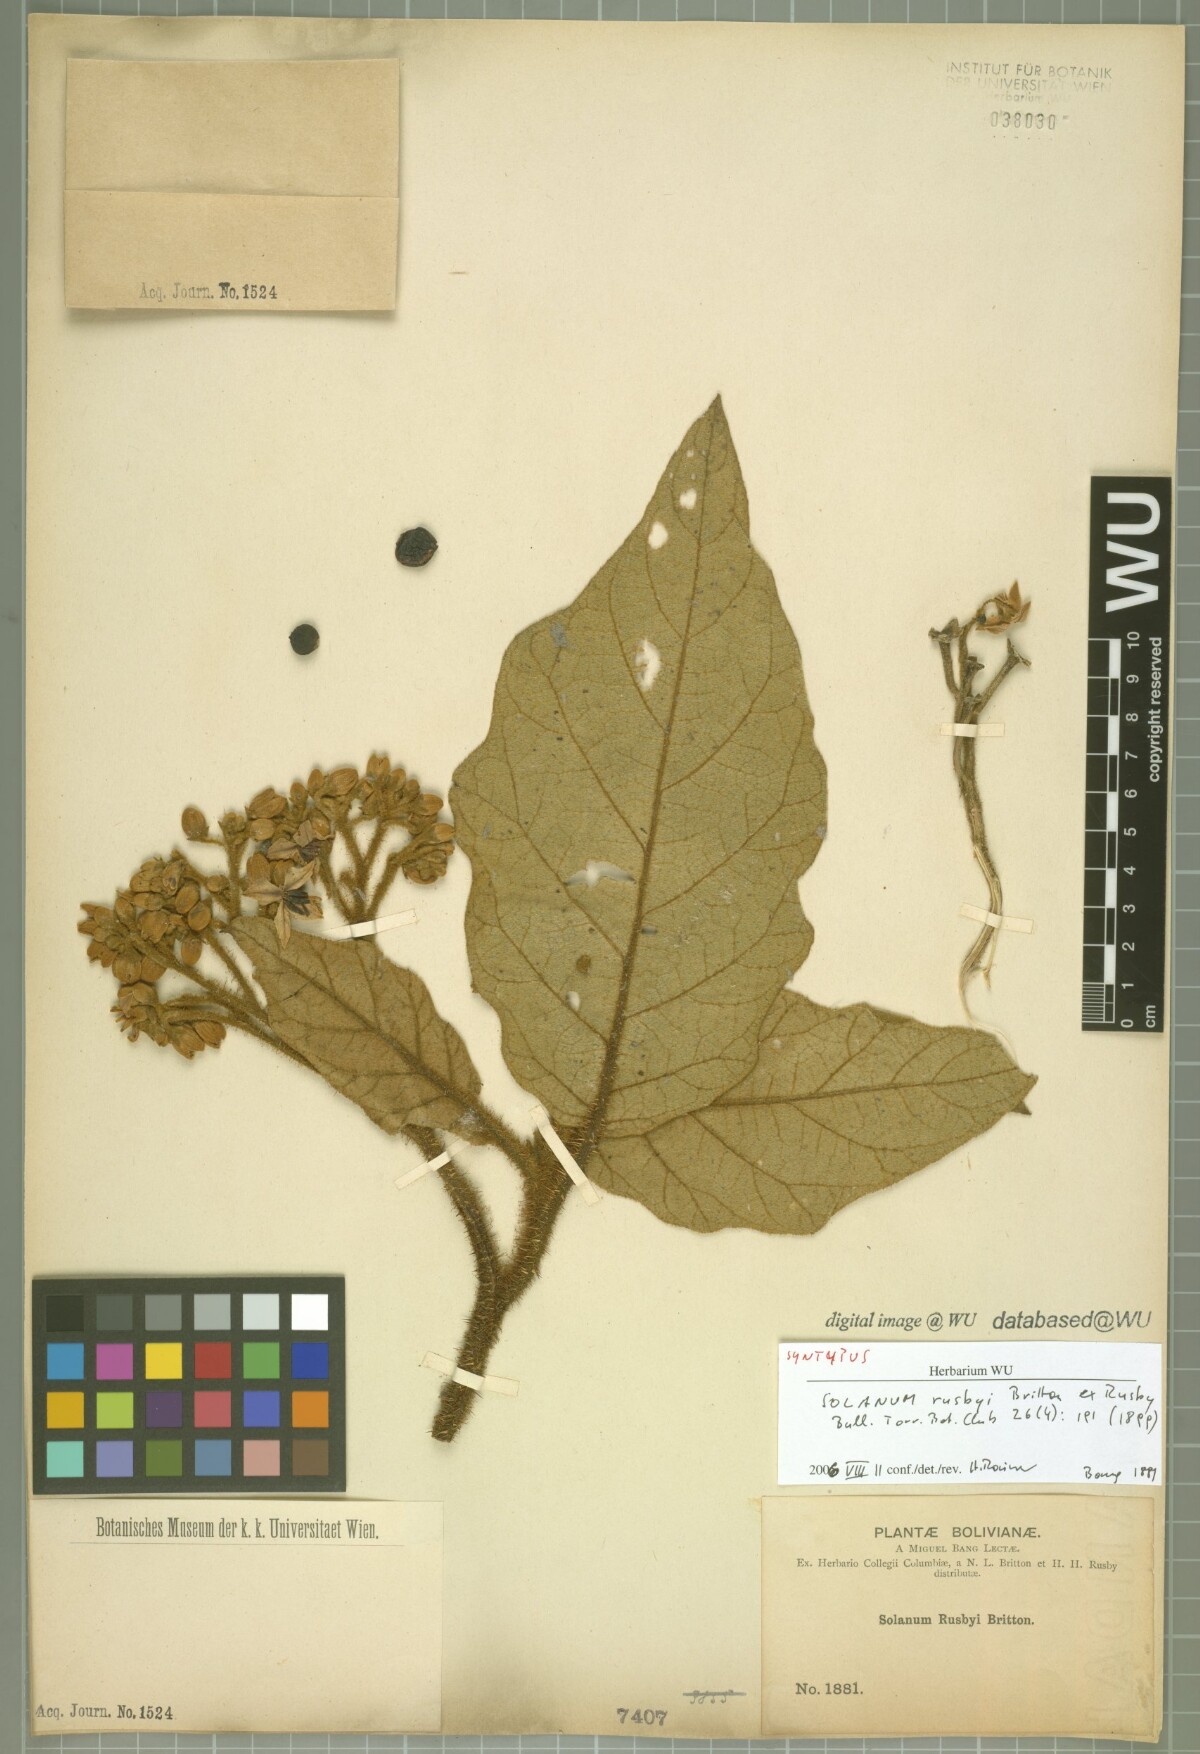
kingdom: Plantae
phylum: Tracheophyta
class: Magnoliopsida
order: Solanales
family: Solanaceae
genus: Solanum
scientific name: Solanum asperolanatum
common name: Devil's-fig
